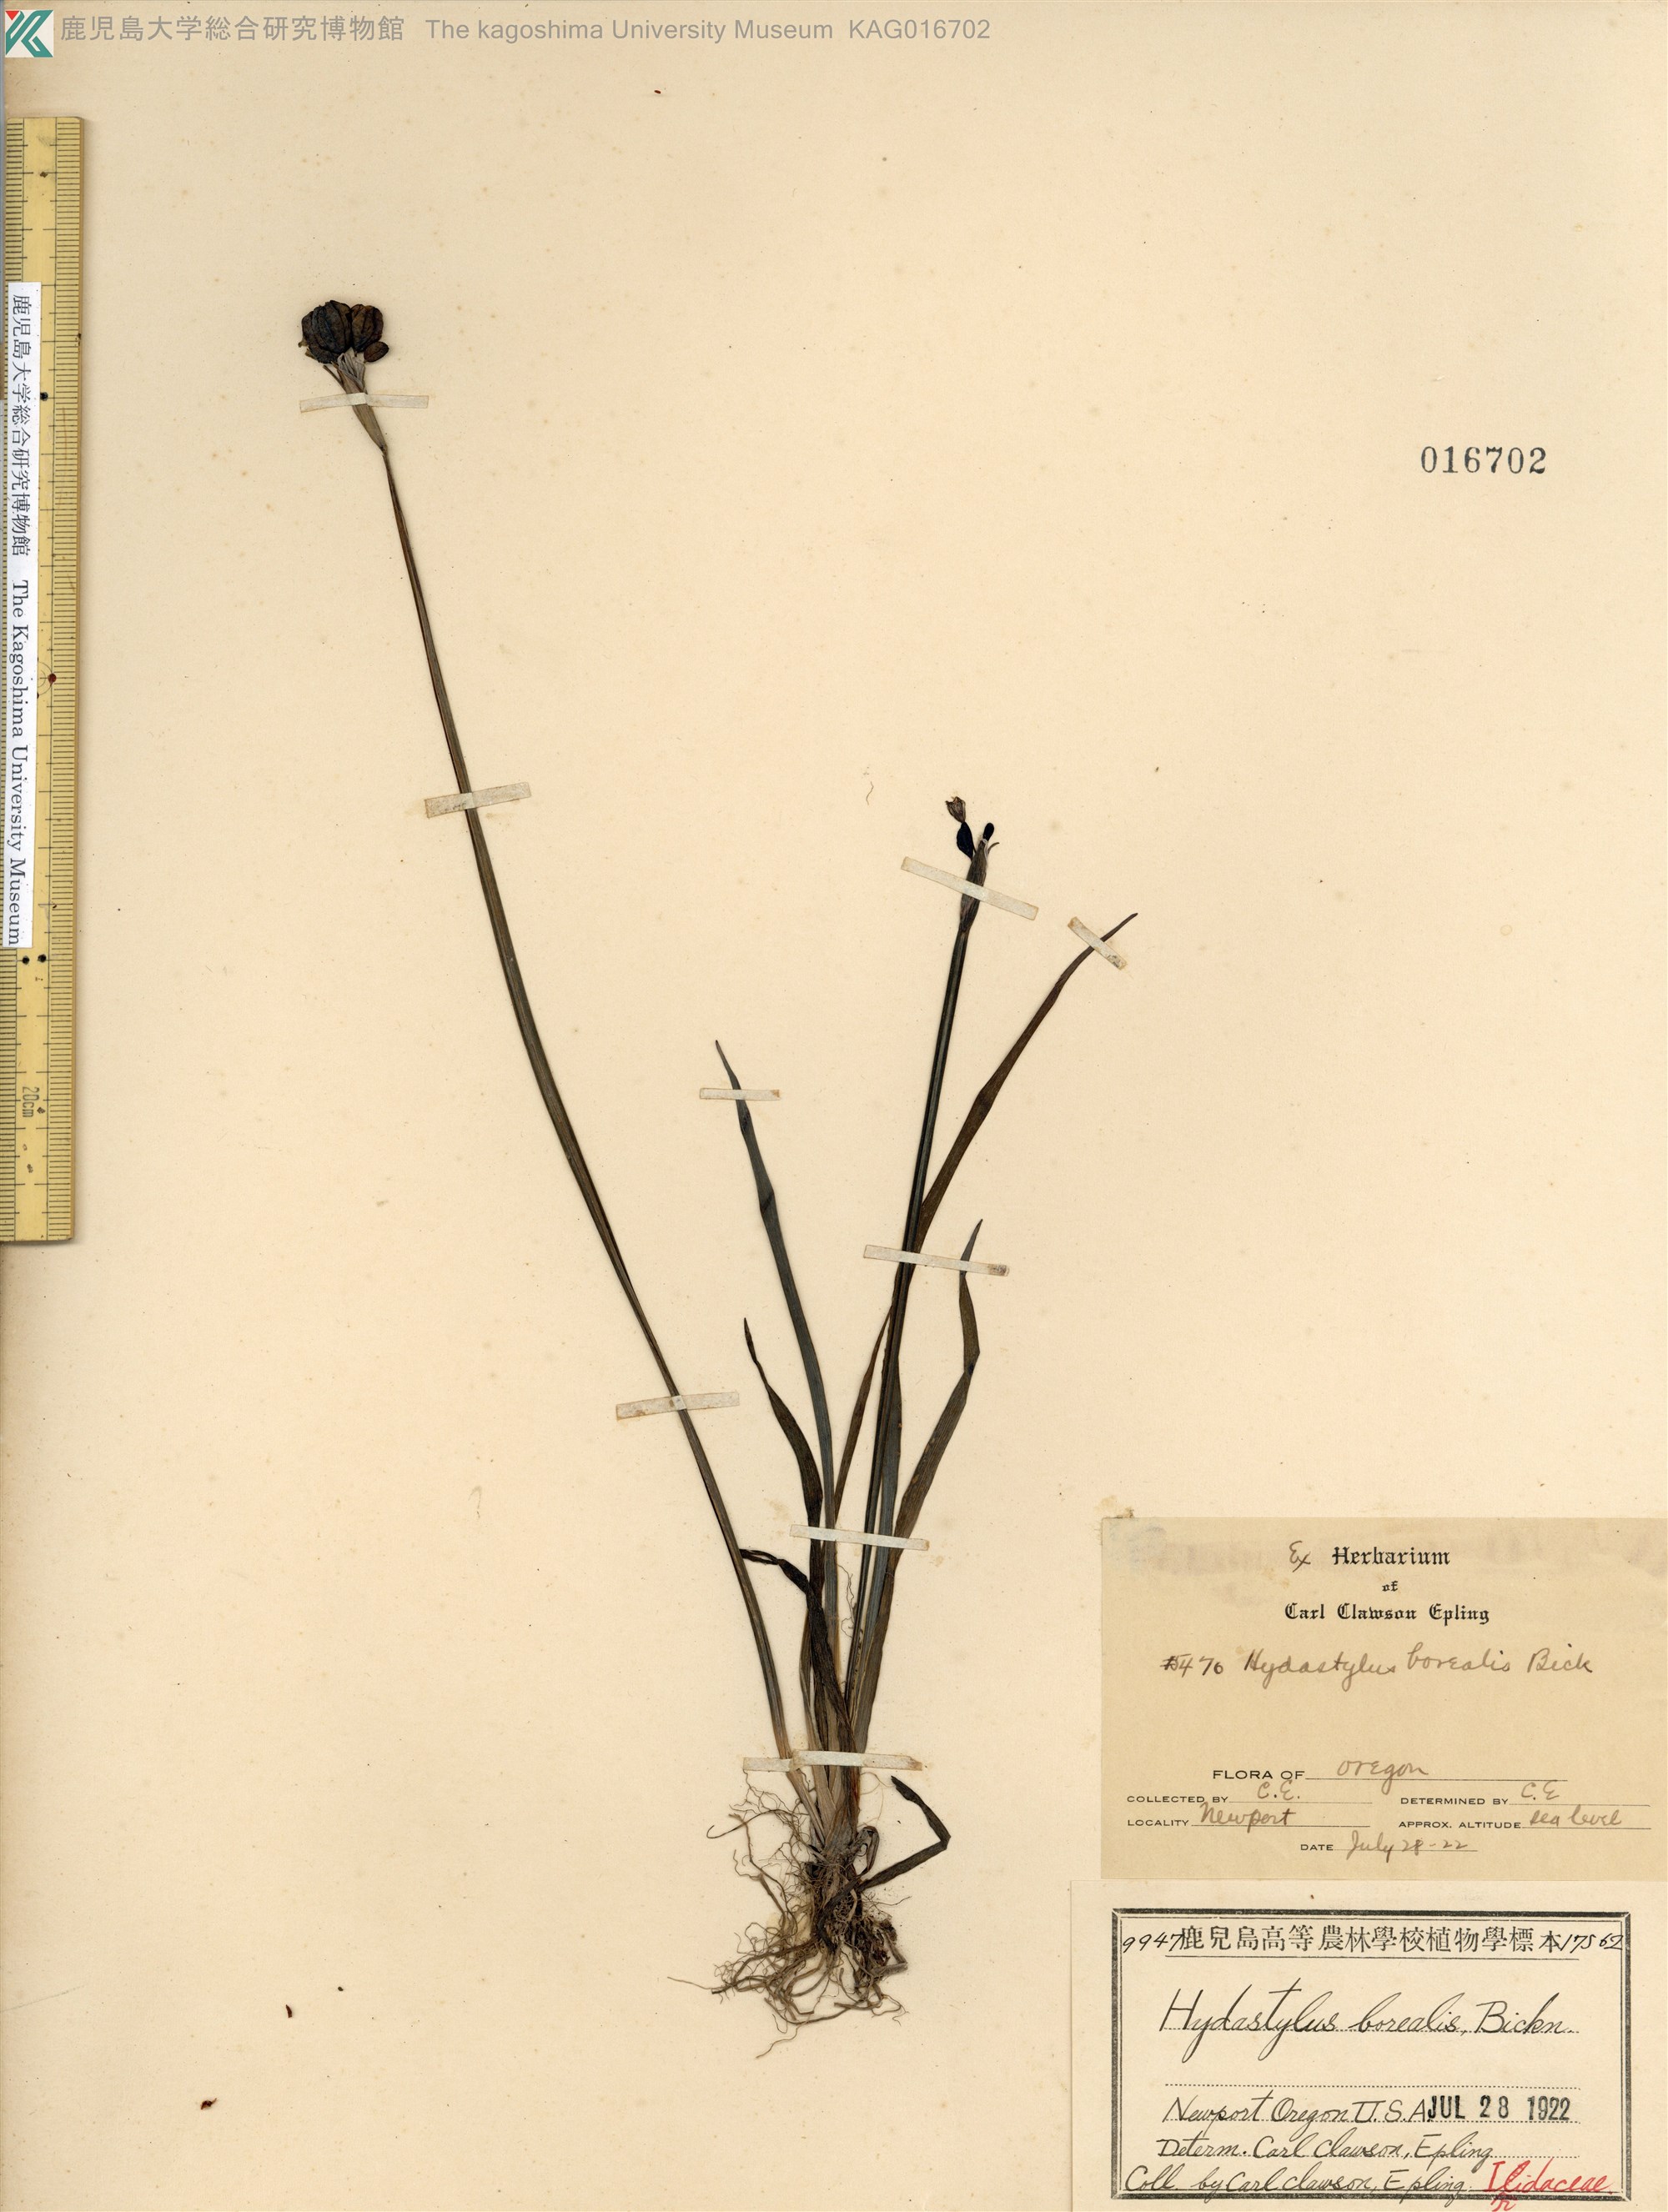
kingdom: Plantae
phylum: Tracheophyta
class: Liliopsida
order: Asparagales
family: Iridaceae
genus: Sisyrinchium
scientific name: Sisyrinchium californicum
